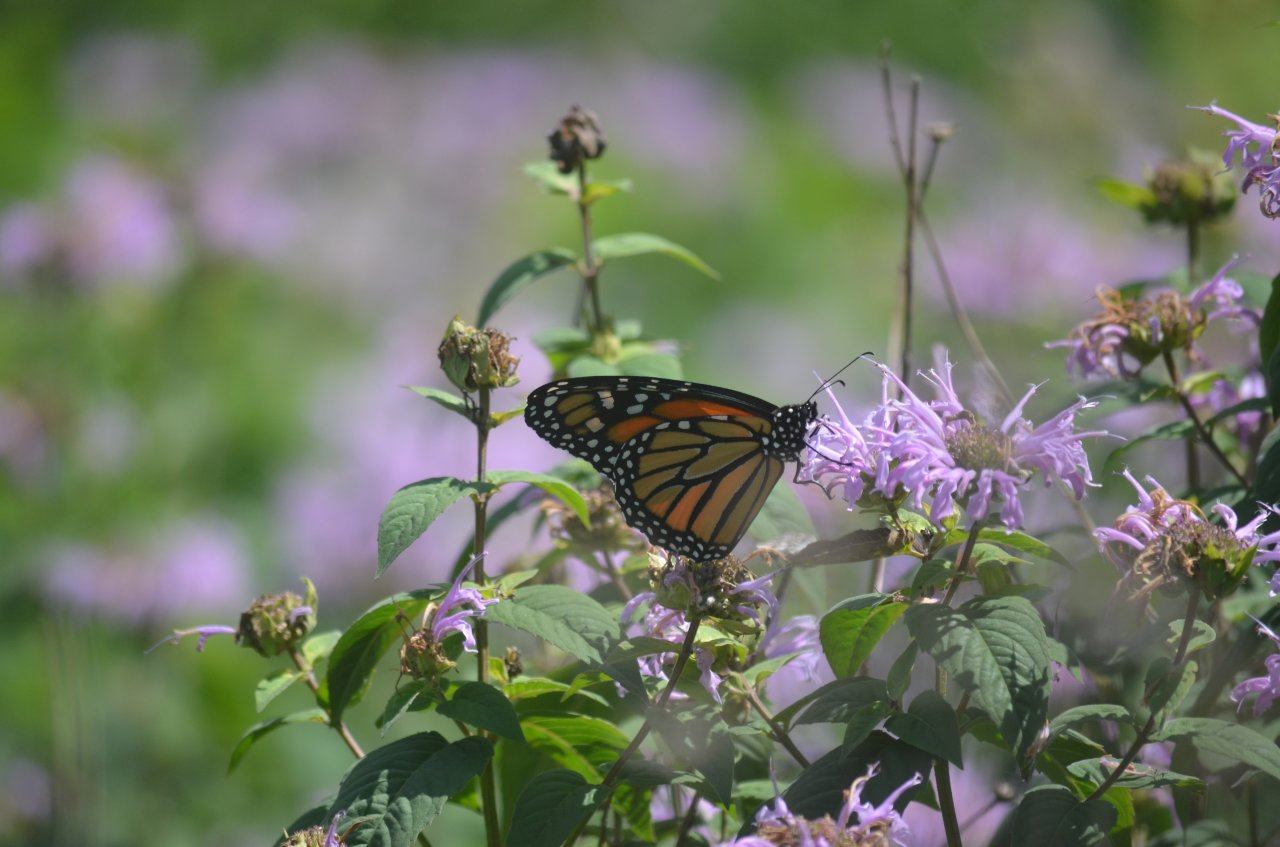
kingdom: Animalia
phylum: Arthropoda
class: Insecta
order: Lepidoptera
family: Nymphalidae
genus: Danaus
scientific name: Danaus plexippus
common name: Monarch
